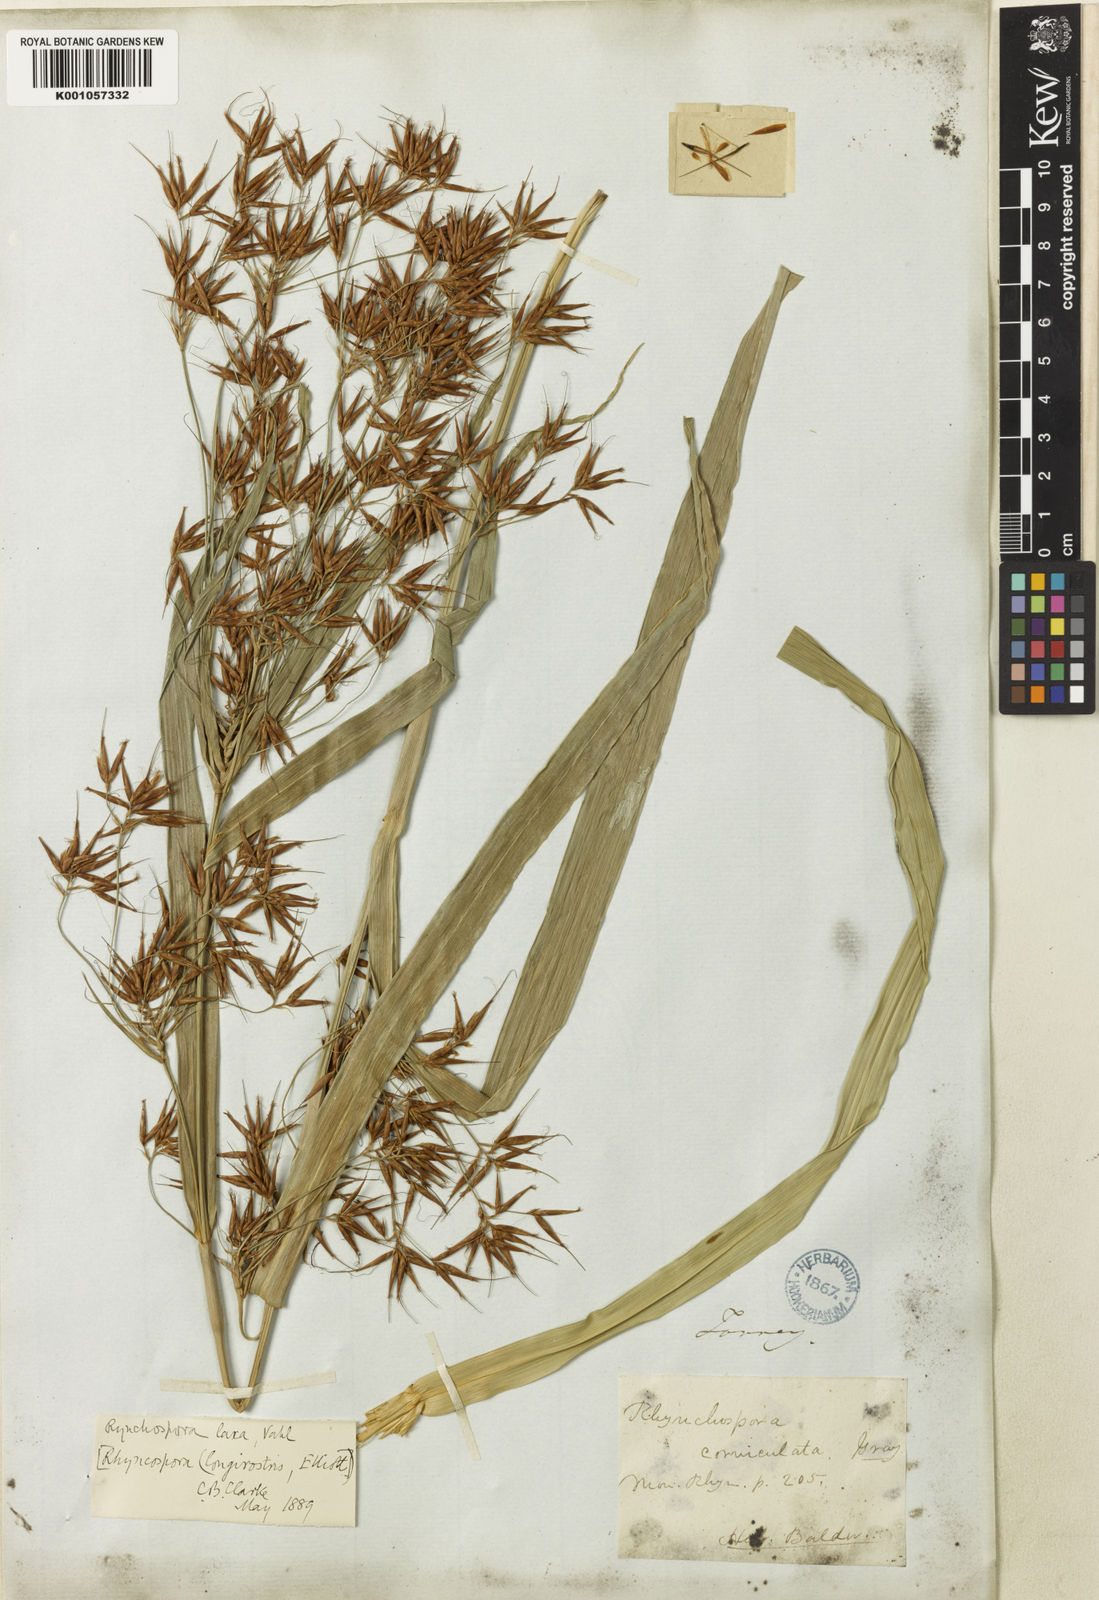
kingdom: Plantae
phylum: Tracheophyta
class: Liliopsida
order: Poales
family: Cyperaceae
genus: Rhynchospora
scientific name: Rhynchospora corniculata
